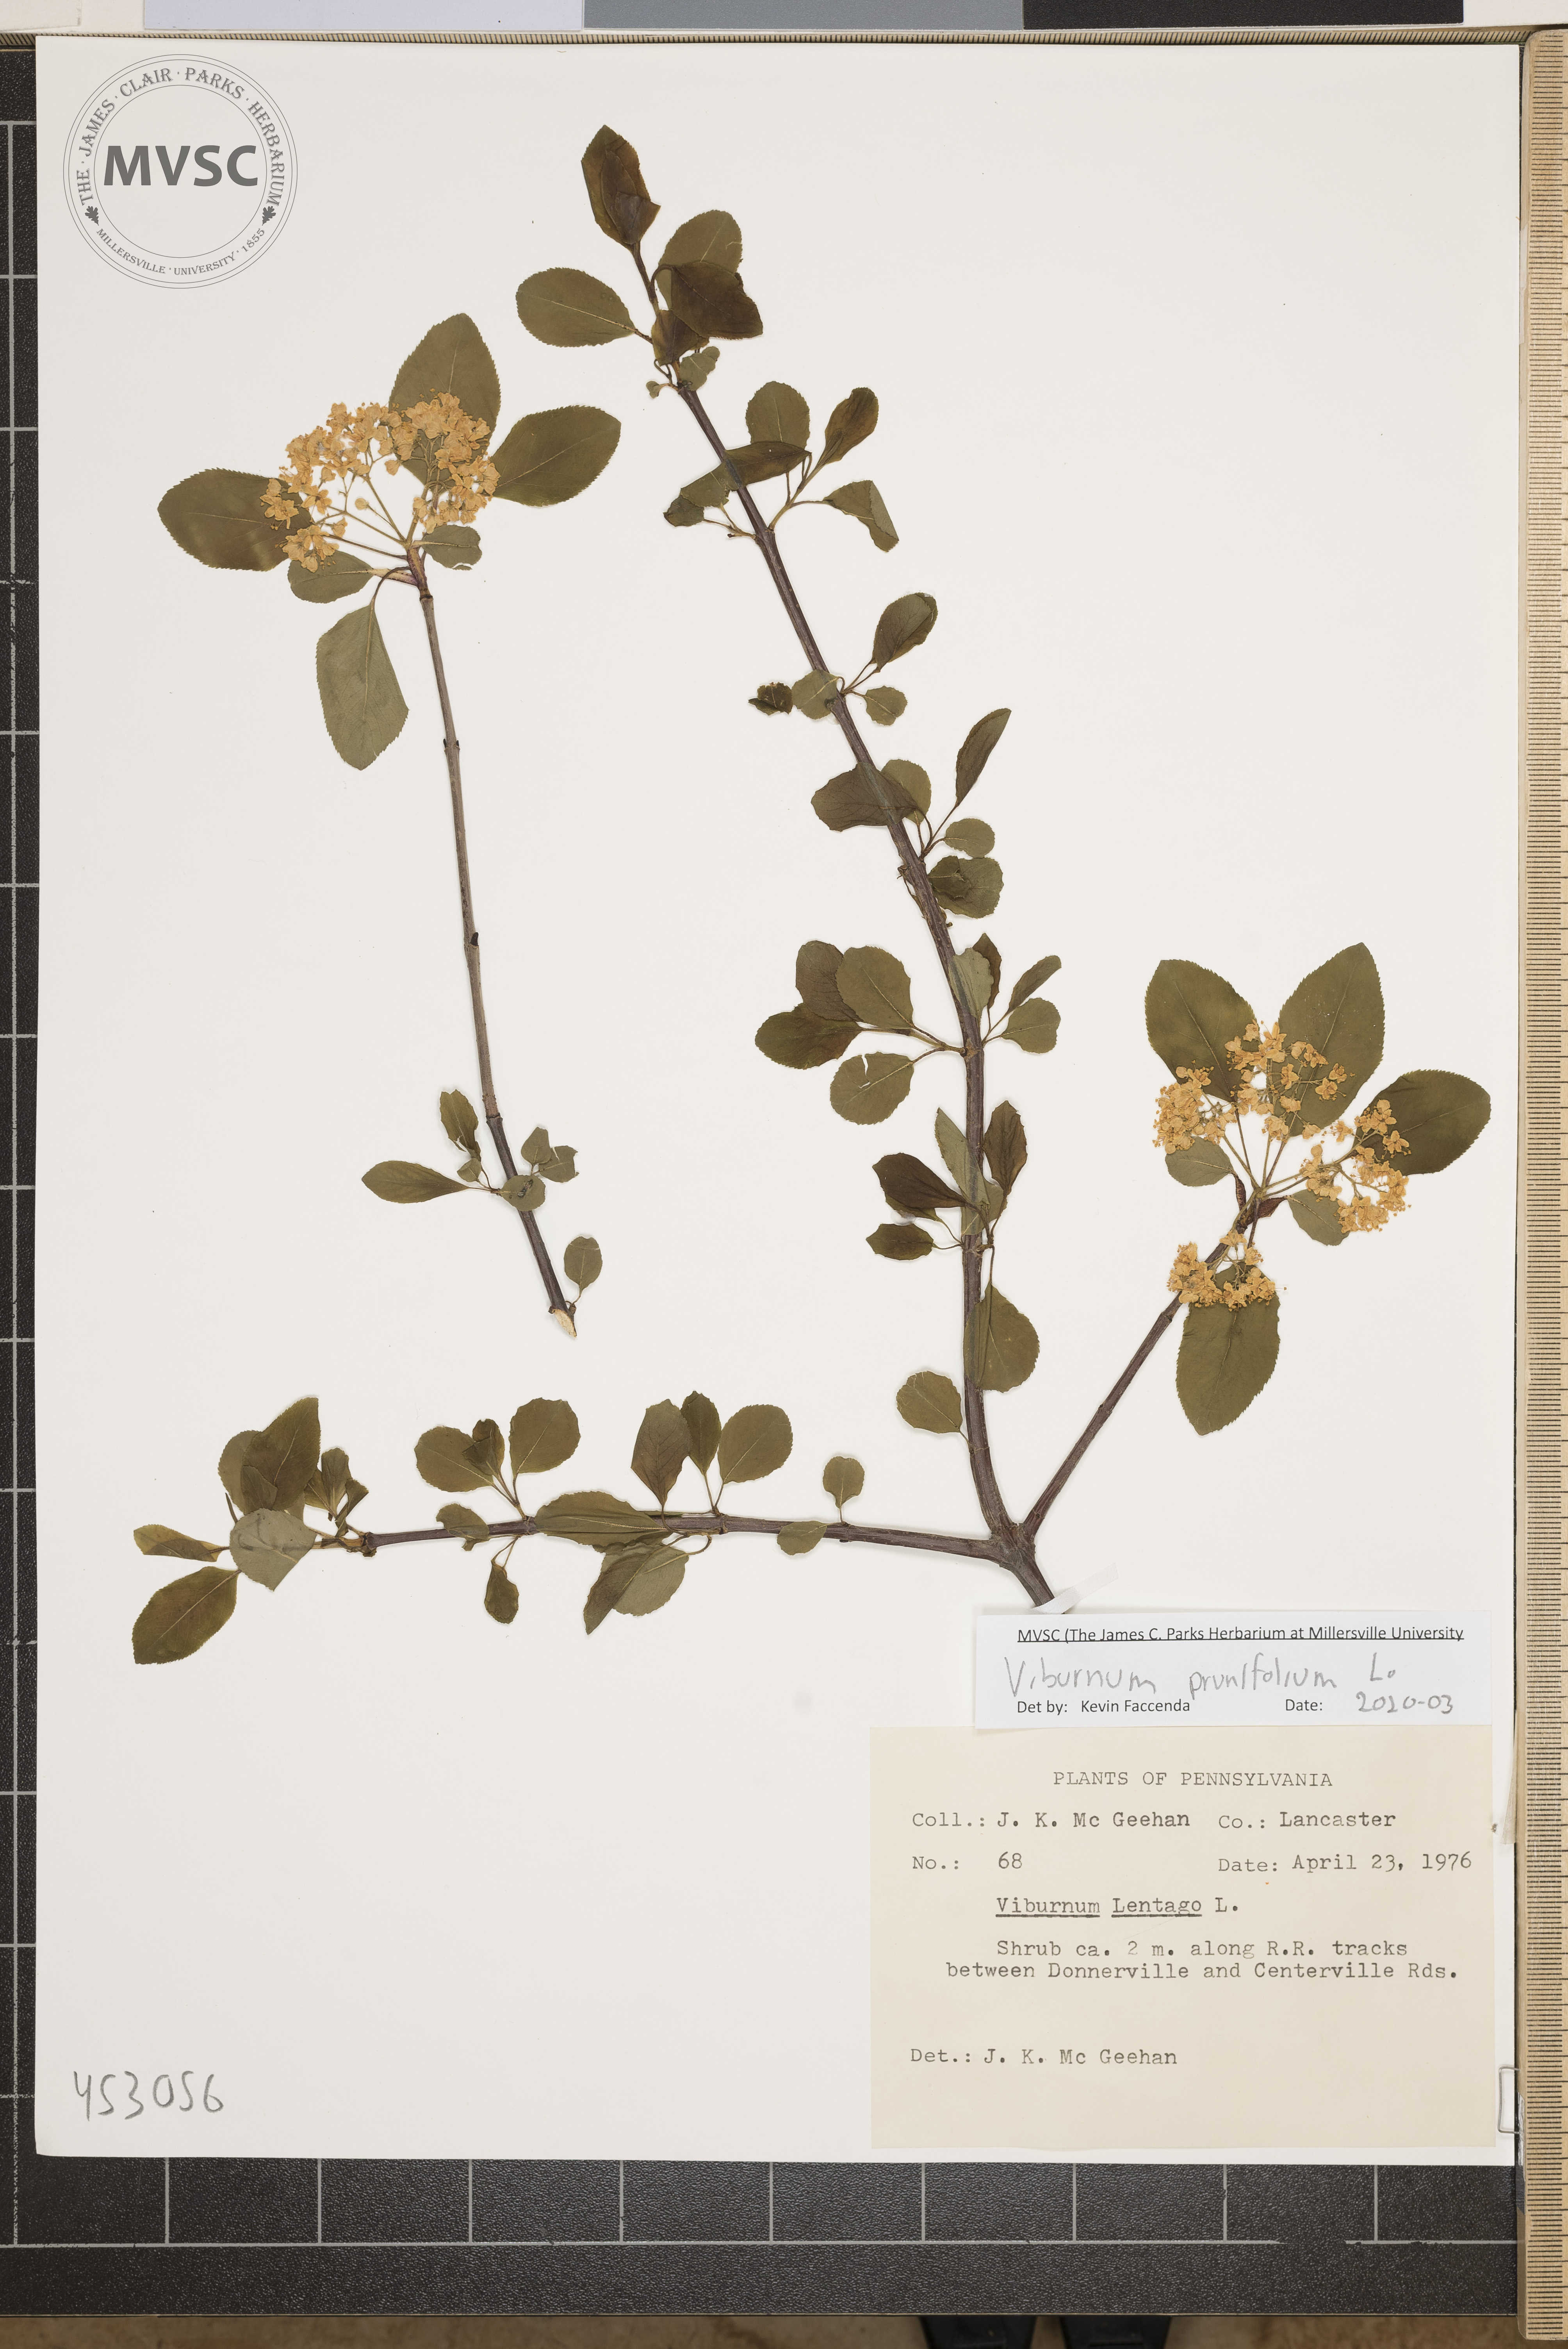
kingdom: Plantae
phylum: Tracheophyta
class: Magnoliopsida
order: Dipsacales
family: Viburnaceae
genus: Viburnum
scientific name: Viburnum prunifolium
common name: Black haw
